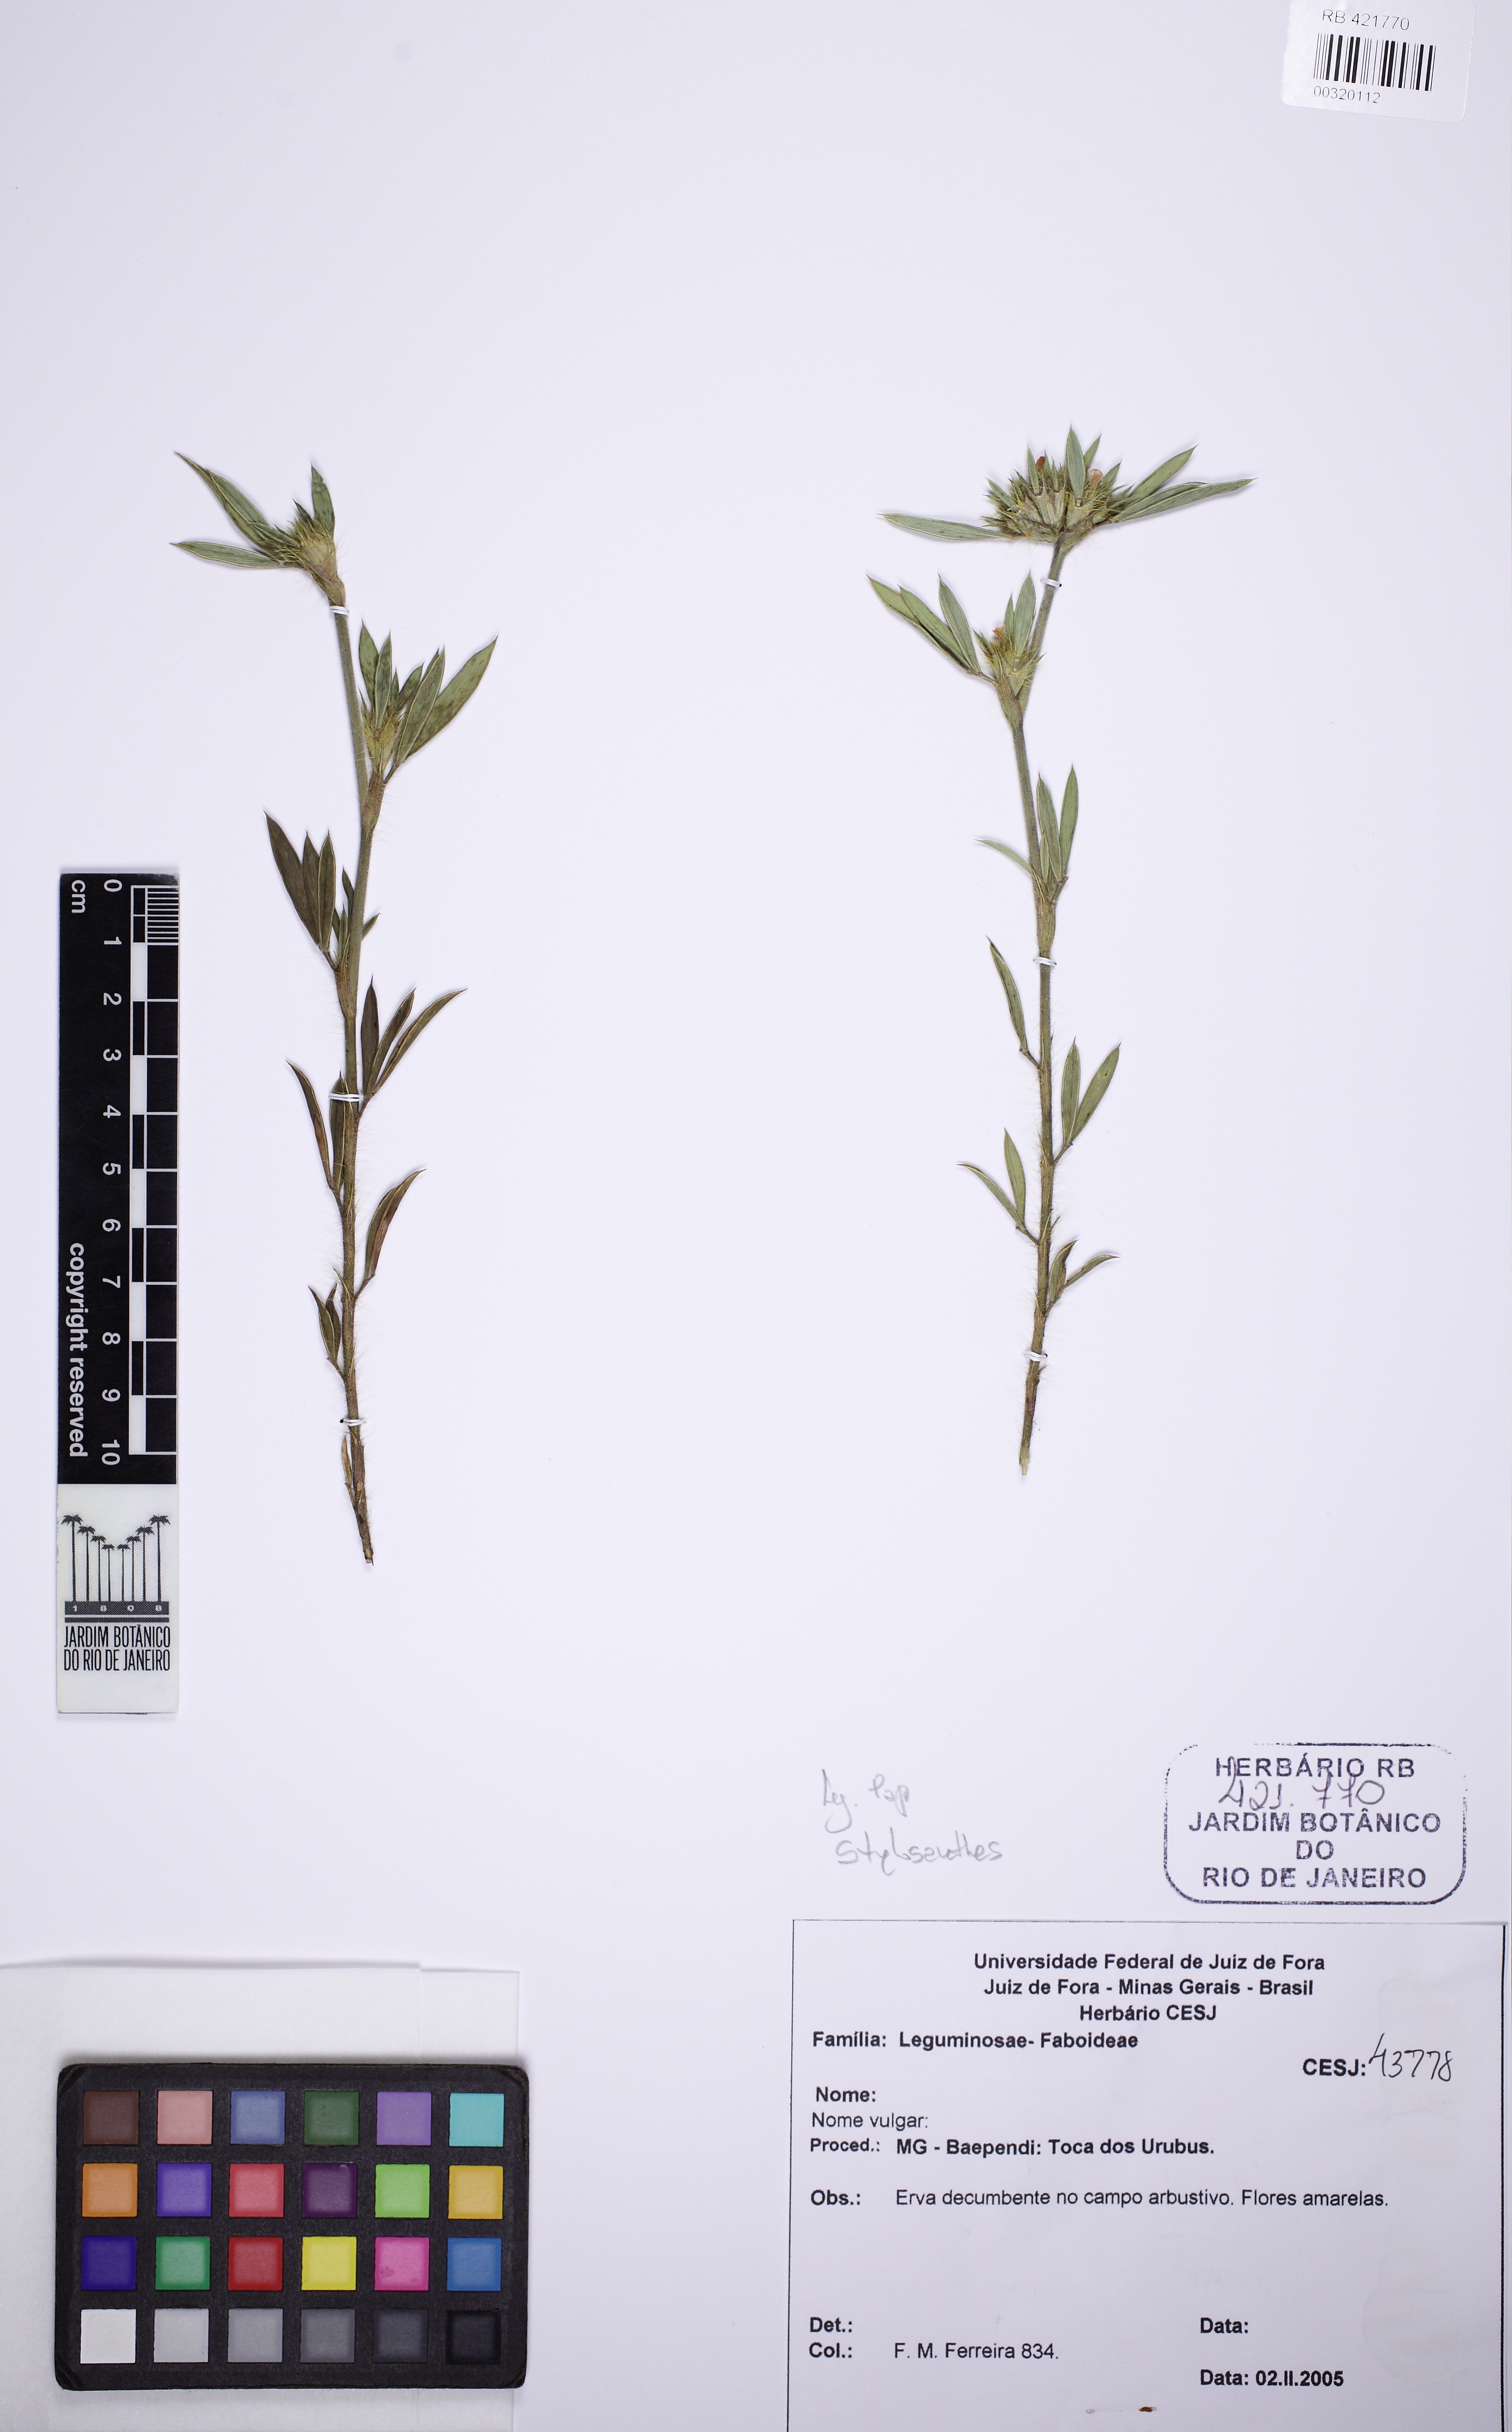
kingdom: Plantae
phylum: Tracheophyta
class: Magnoliopsida
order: Fabales
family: Fabaceae
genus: Stylosanthes
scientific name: Stylosanthes guianensis
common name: Pencil flower
